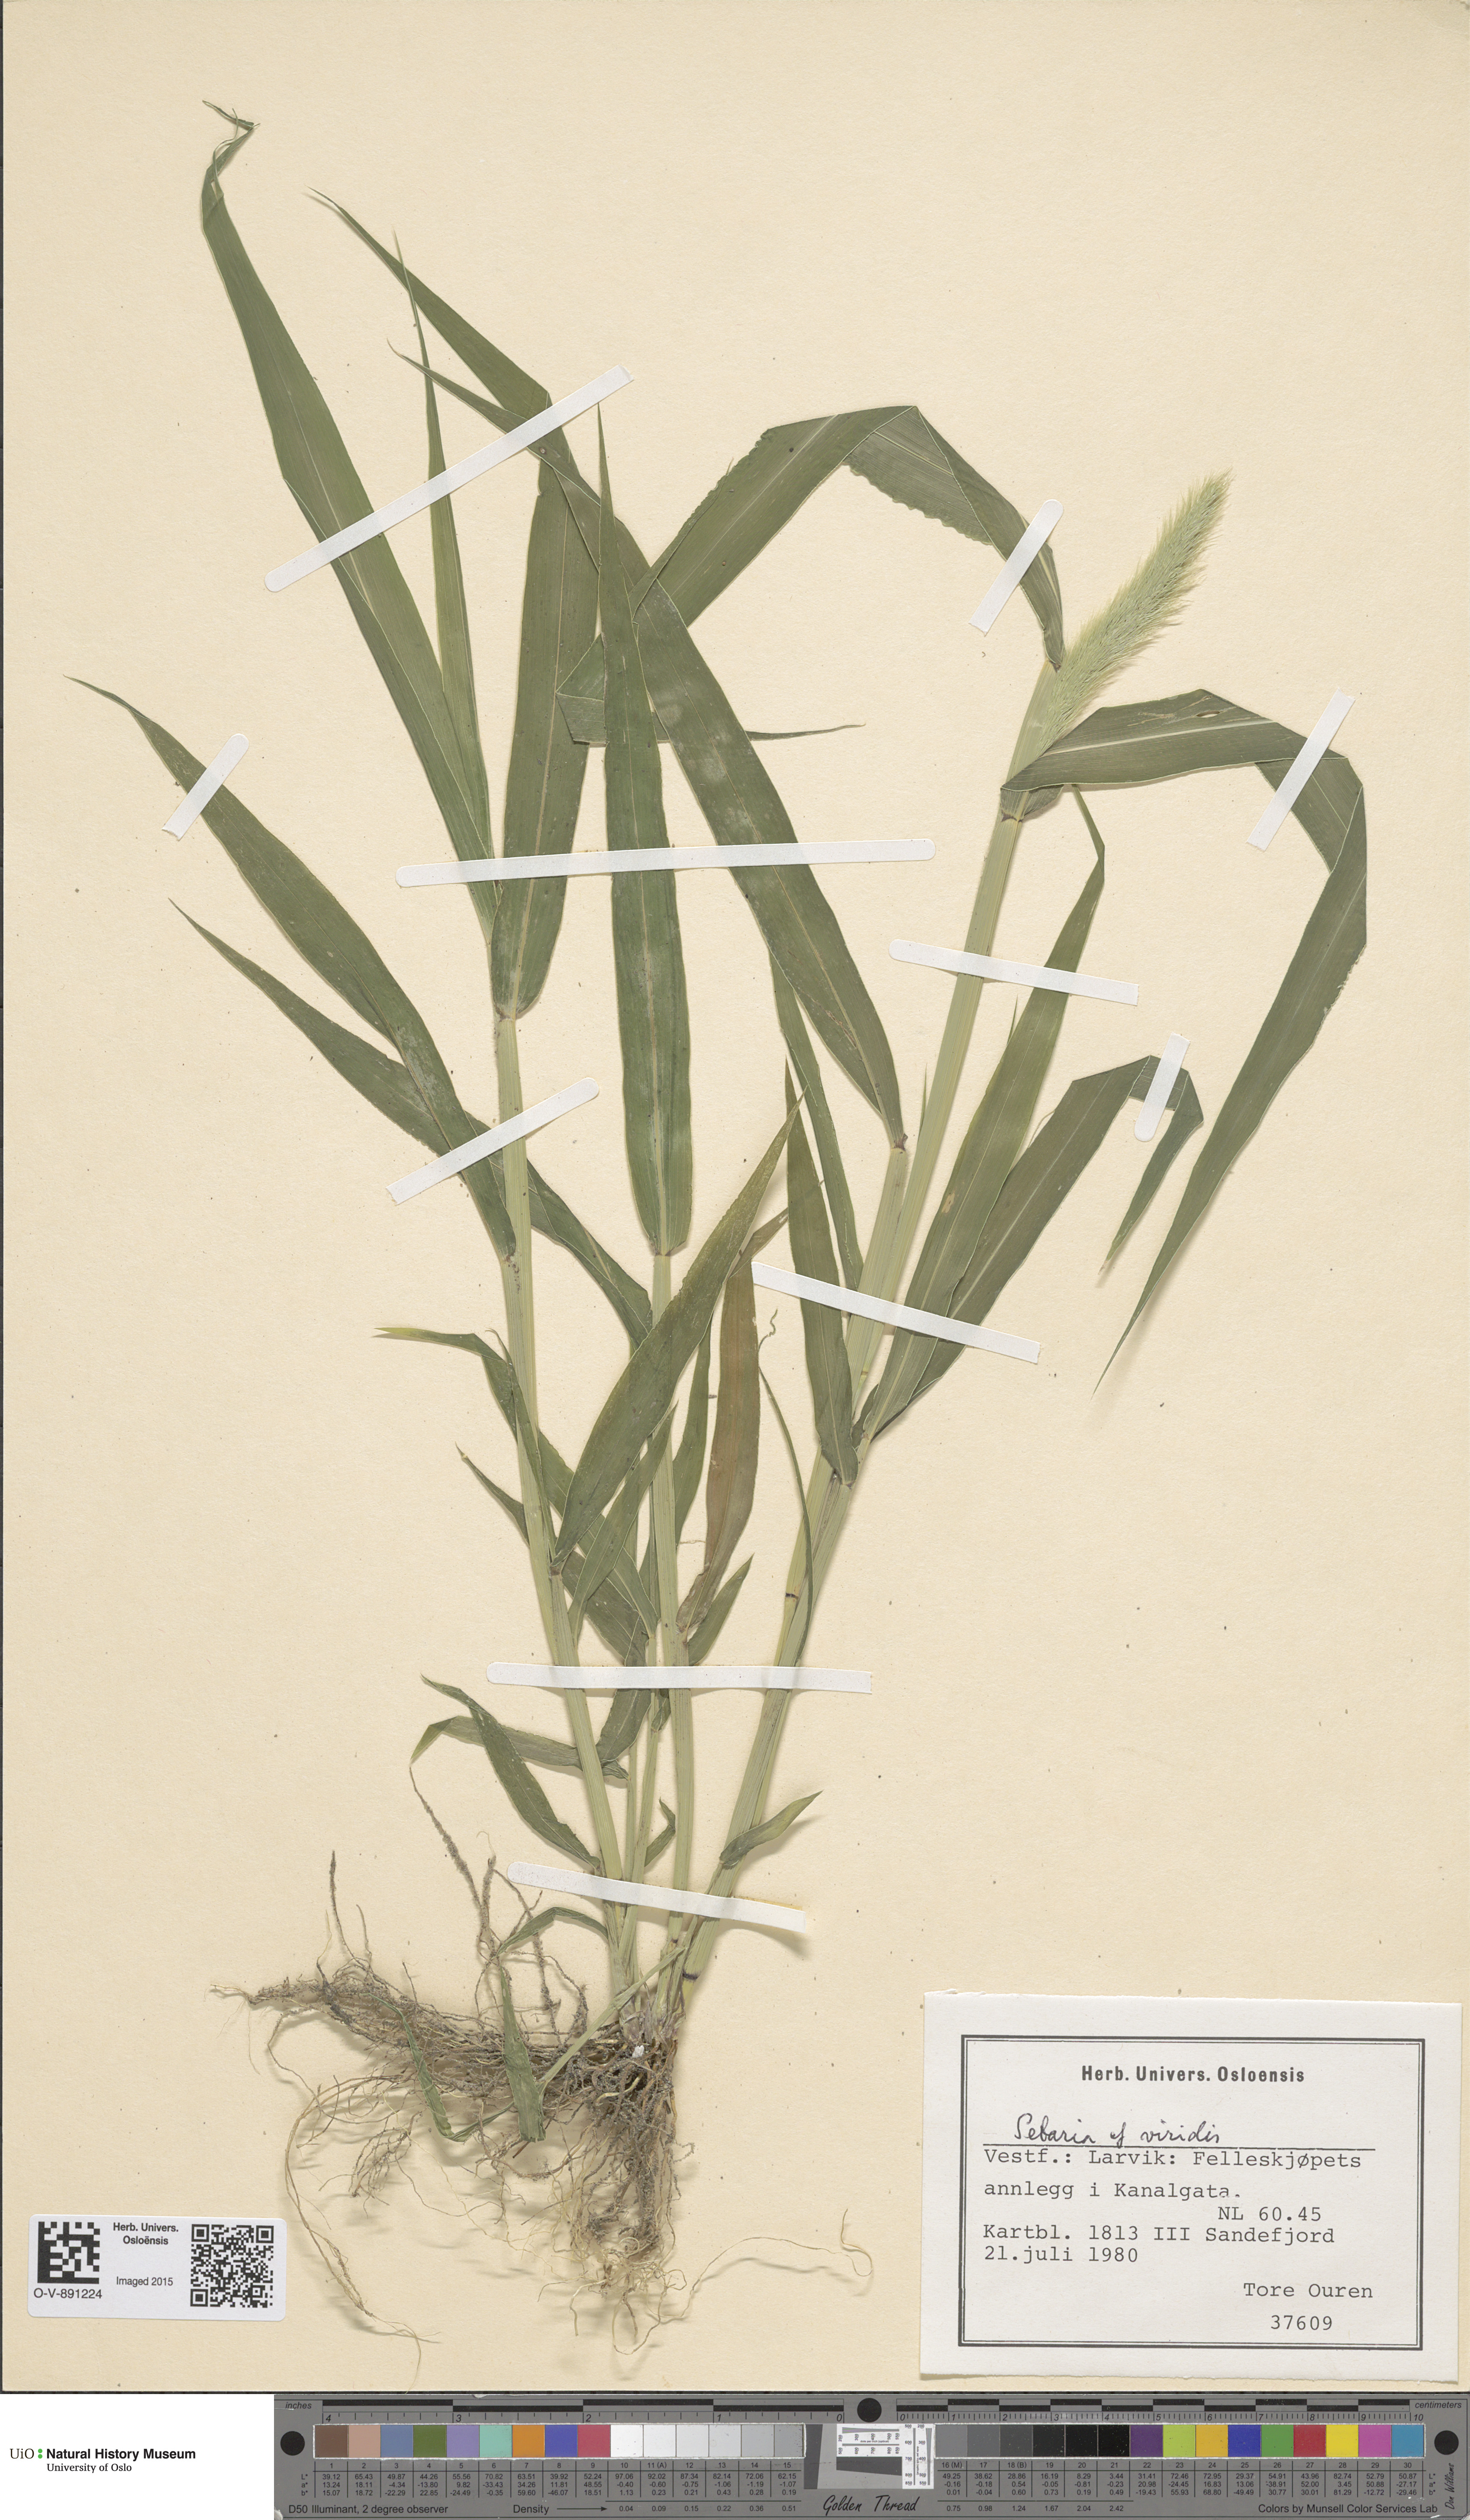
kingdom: Plantae
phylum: Tracheophyta
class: Liliopsida
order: Poales
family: Poaceae
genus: Setaria
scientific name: Setaria viridis
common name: Green bristlegrass
